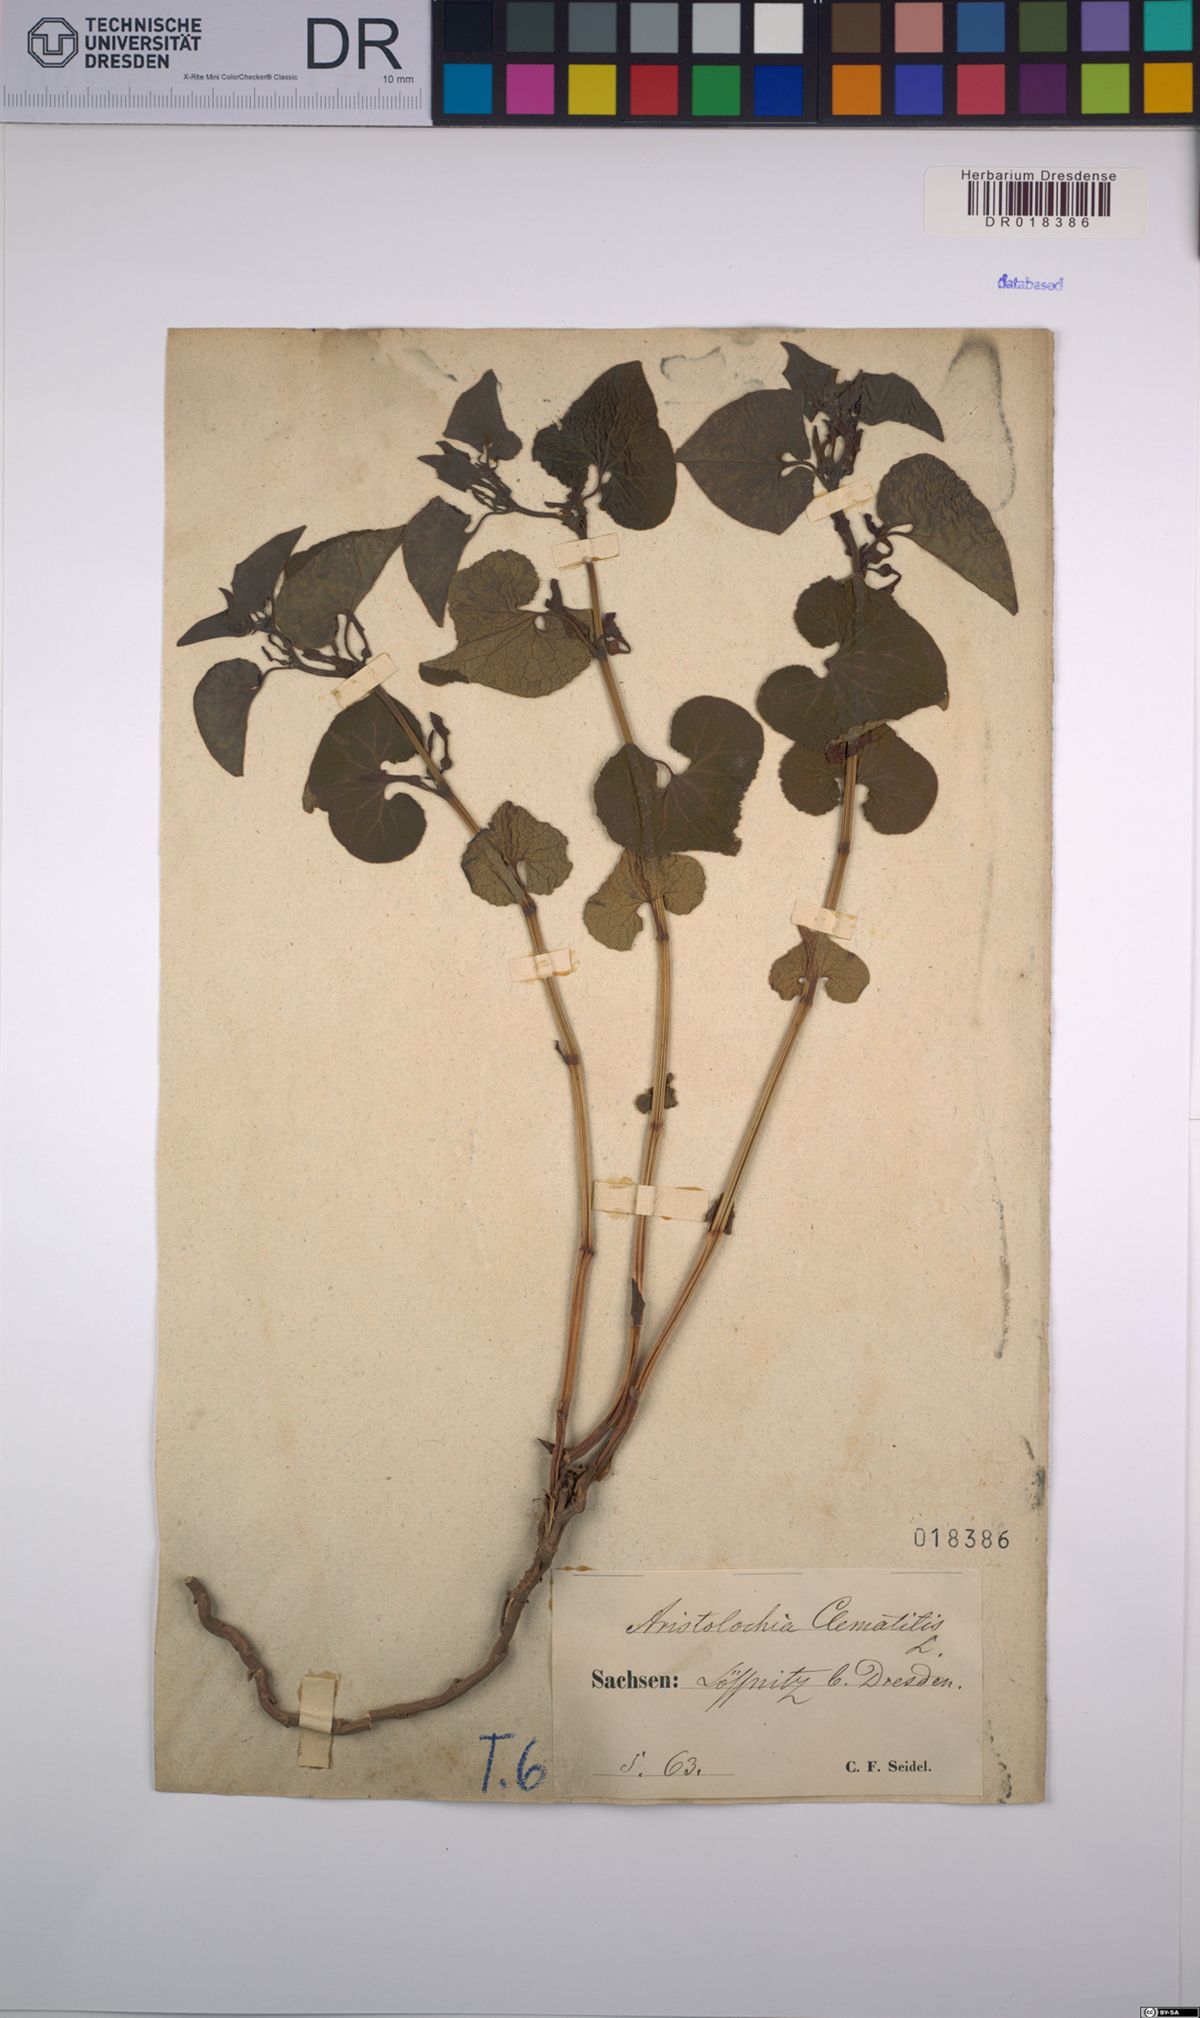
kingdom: Plantae
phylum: Tracheophyta
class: Magnoliopsida
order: Piperales
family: Aristolochiaceae
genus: Aristolochia
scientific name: Aristolochia clematitis
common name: Birthwort
